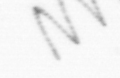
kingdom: Chromista
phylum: Ochrophyta
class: Bacillariophyceae
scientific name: Bacillariophyceae
